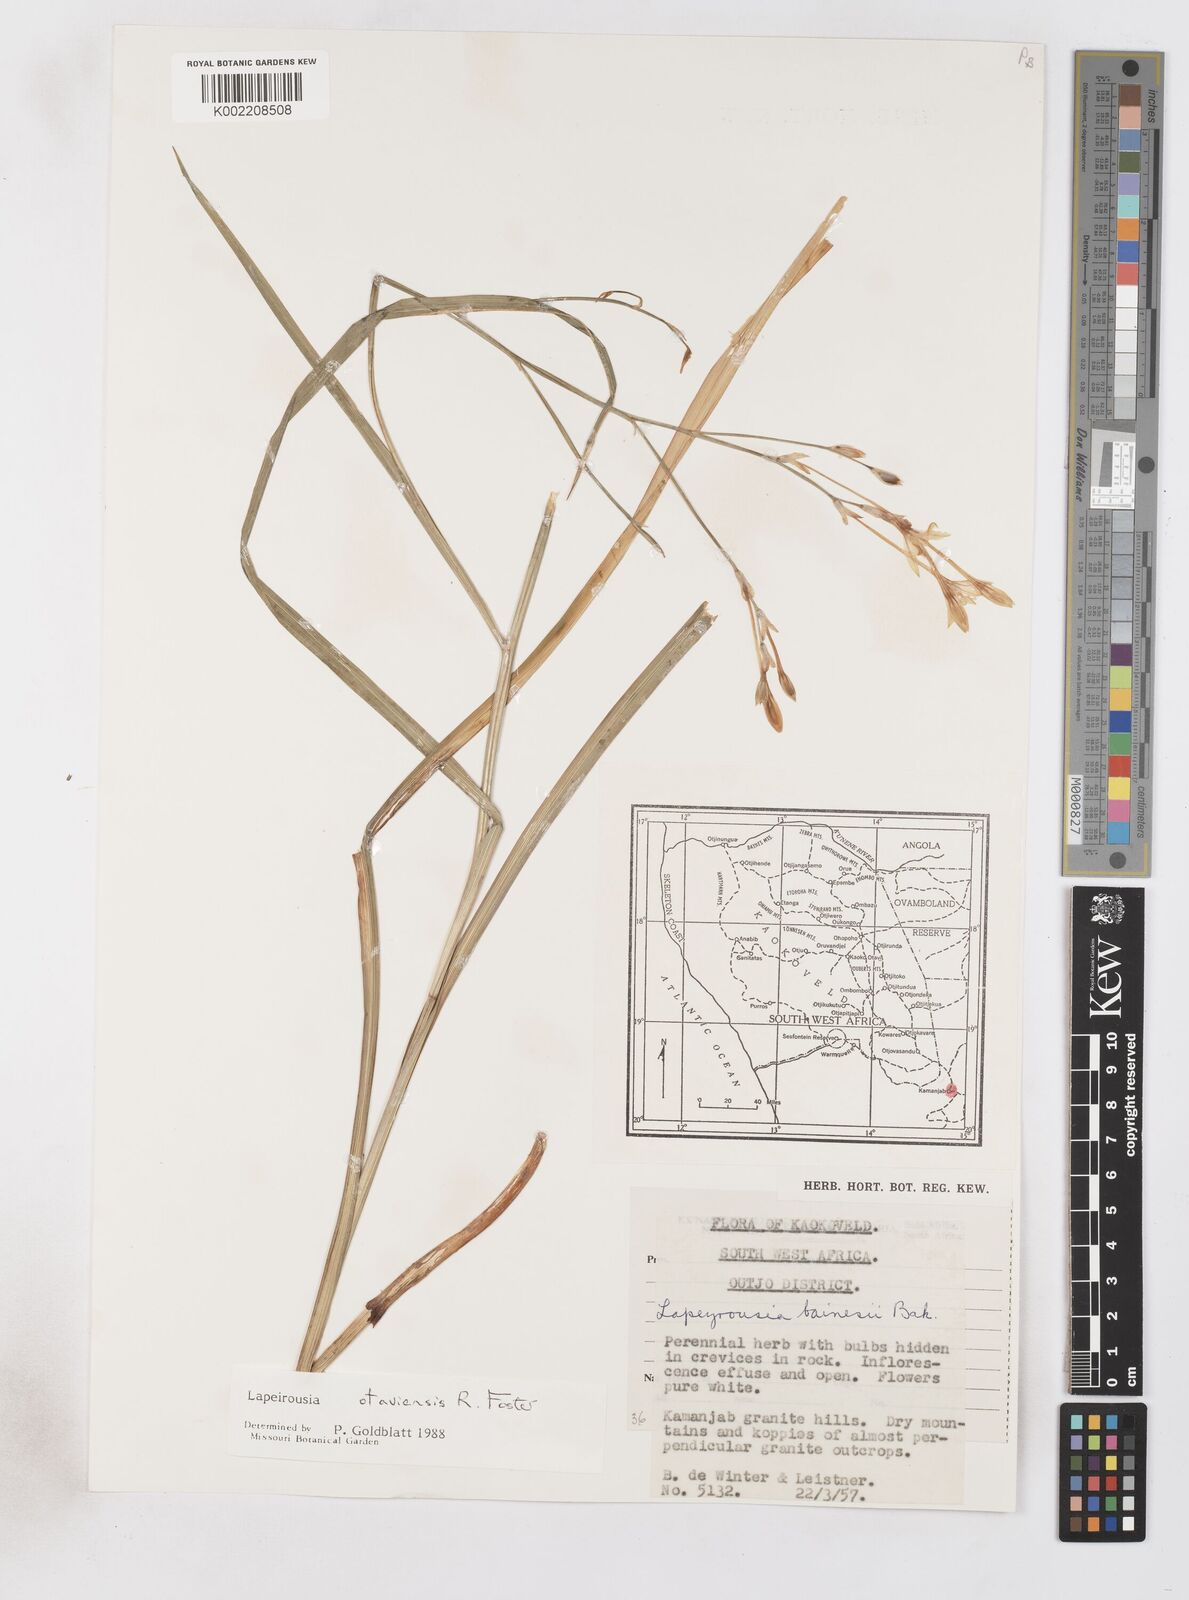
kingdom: Plantae
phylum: Tracheophyta
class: Liliopsida
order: Asparagales
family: Iridaceae
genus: Afrosolen
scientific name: Afrosolen otaviensis
